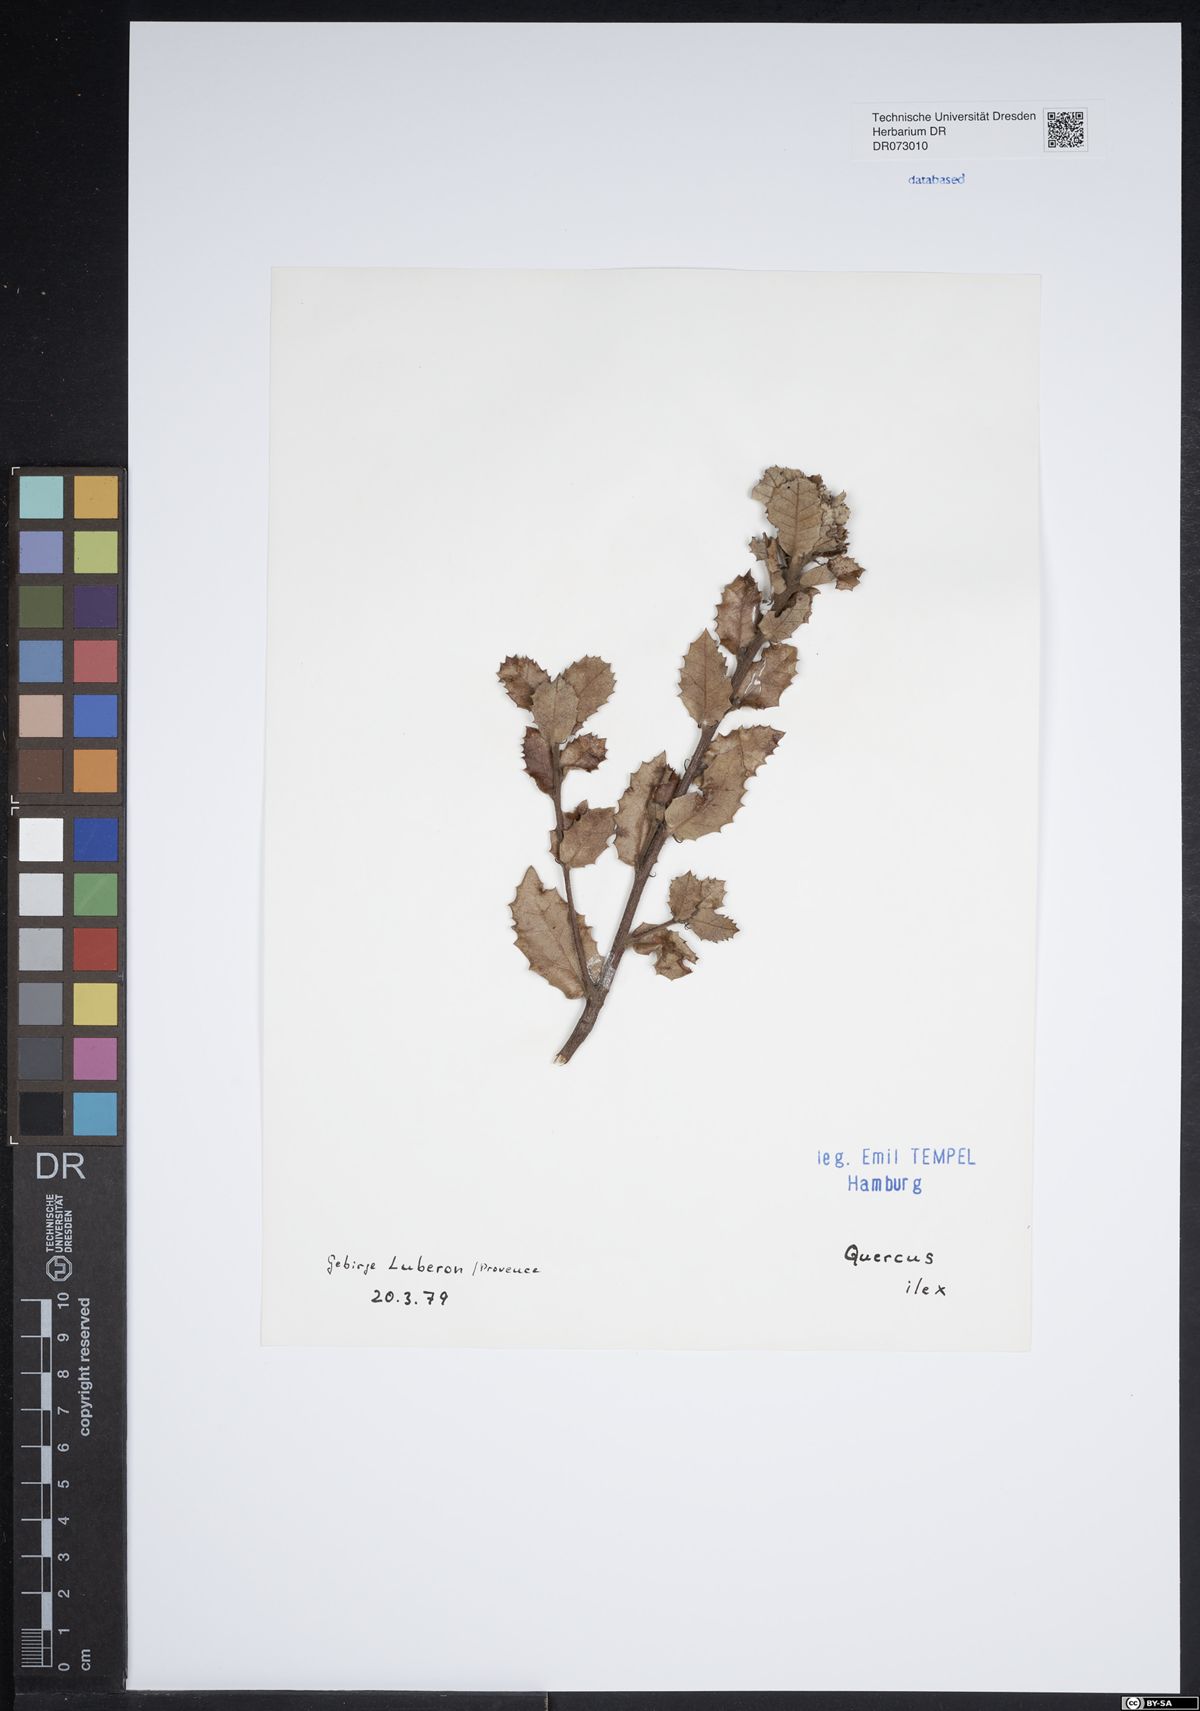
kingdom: Plantae
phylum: Tracheophyta
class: Magnoliopsida
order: Fagales
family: Fagaceae
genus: Quercus
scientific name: Quercus ilex
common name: Evergreen oak
